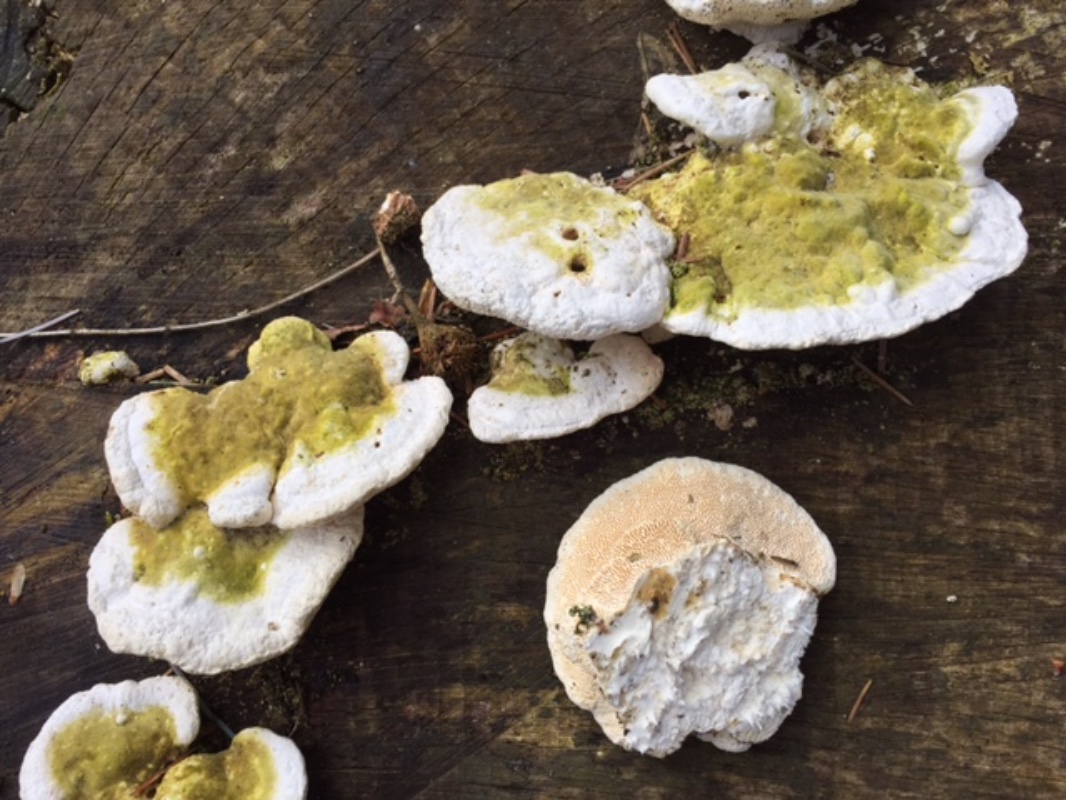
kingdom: Fungi
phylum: Basidiomycota
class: Agaricomycetes
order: Polyporales
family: Polyporaceae
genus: Trametes
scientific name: Trametes hirsuta
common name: håret læderporesvamp
